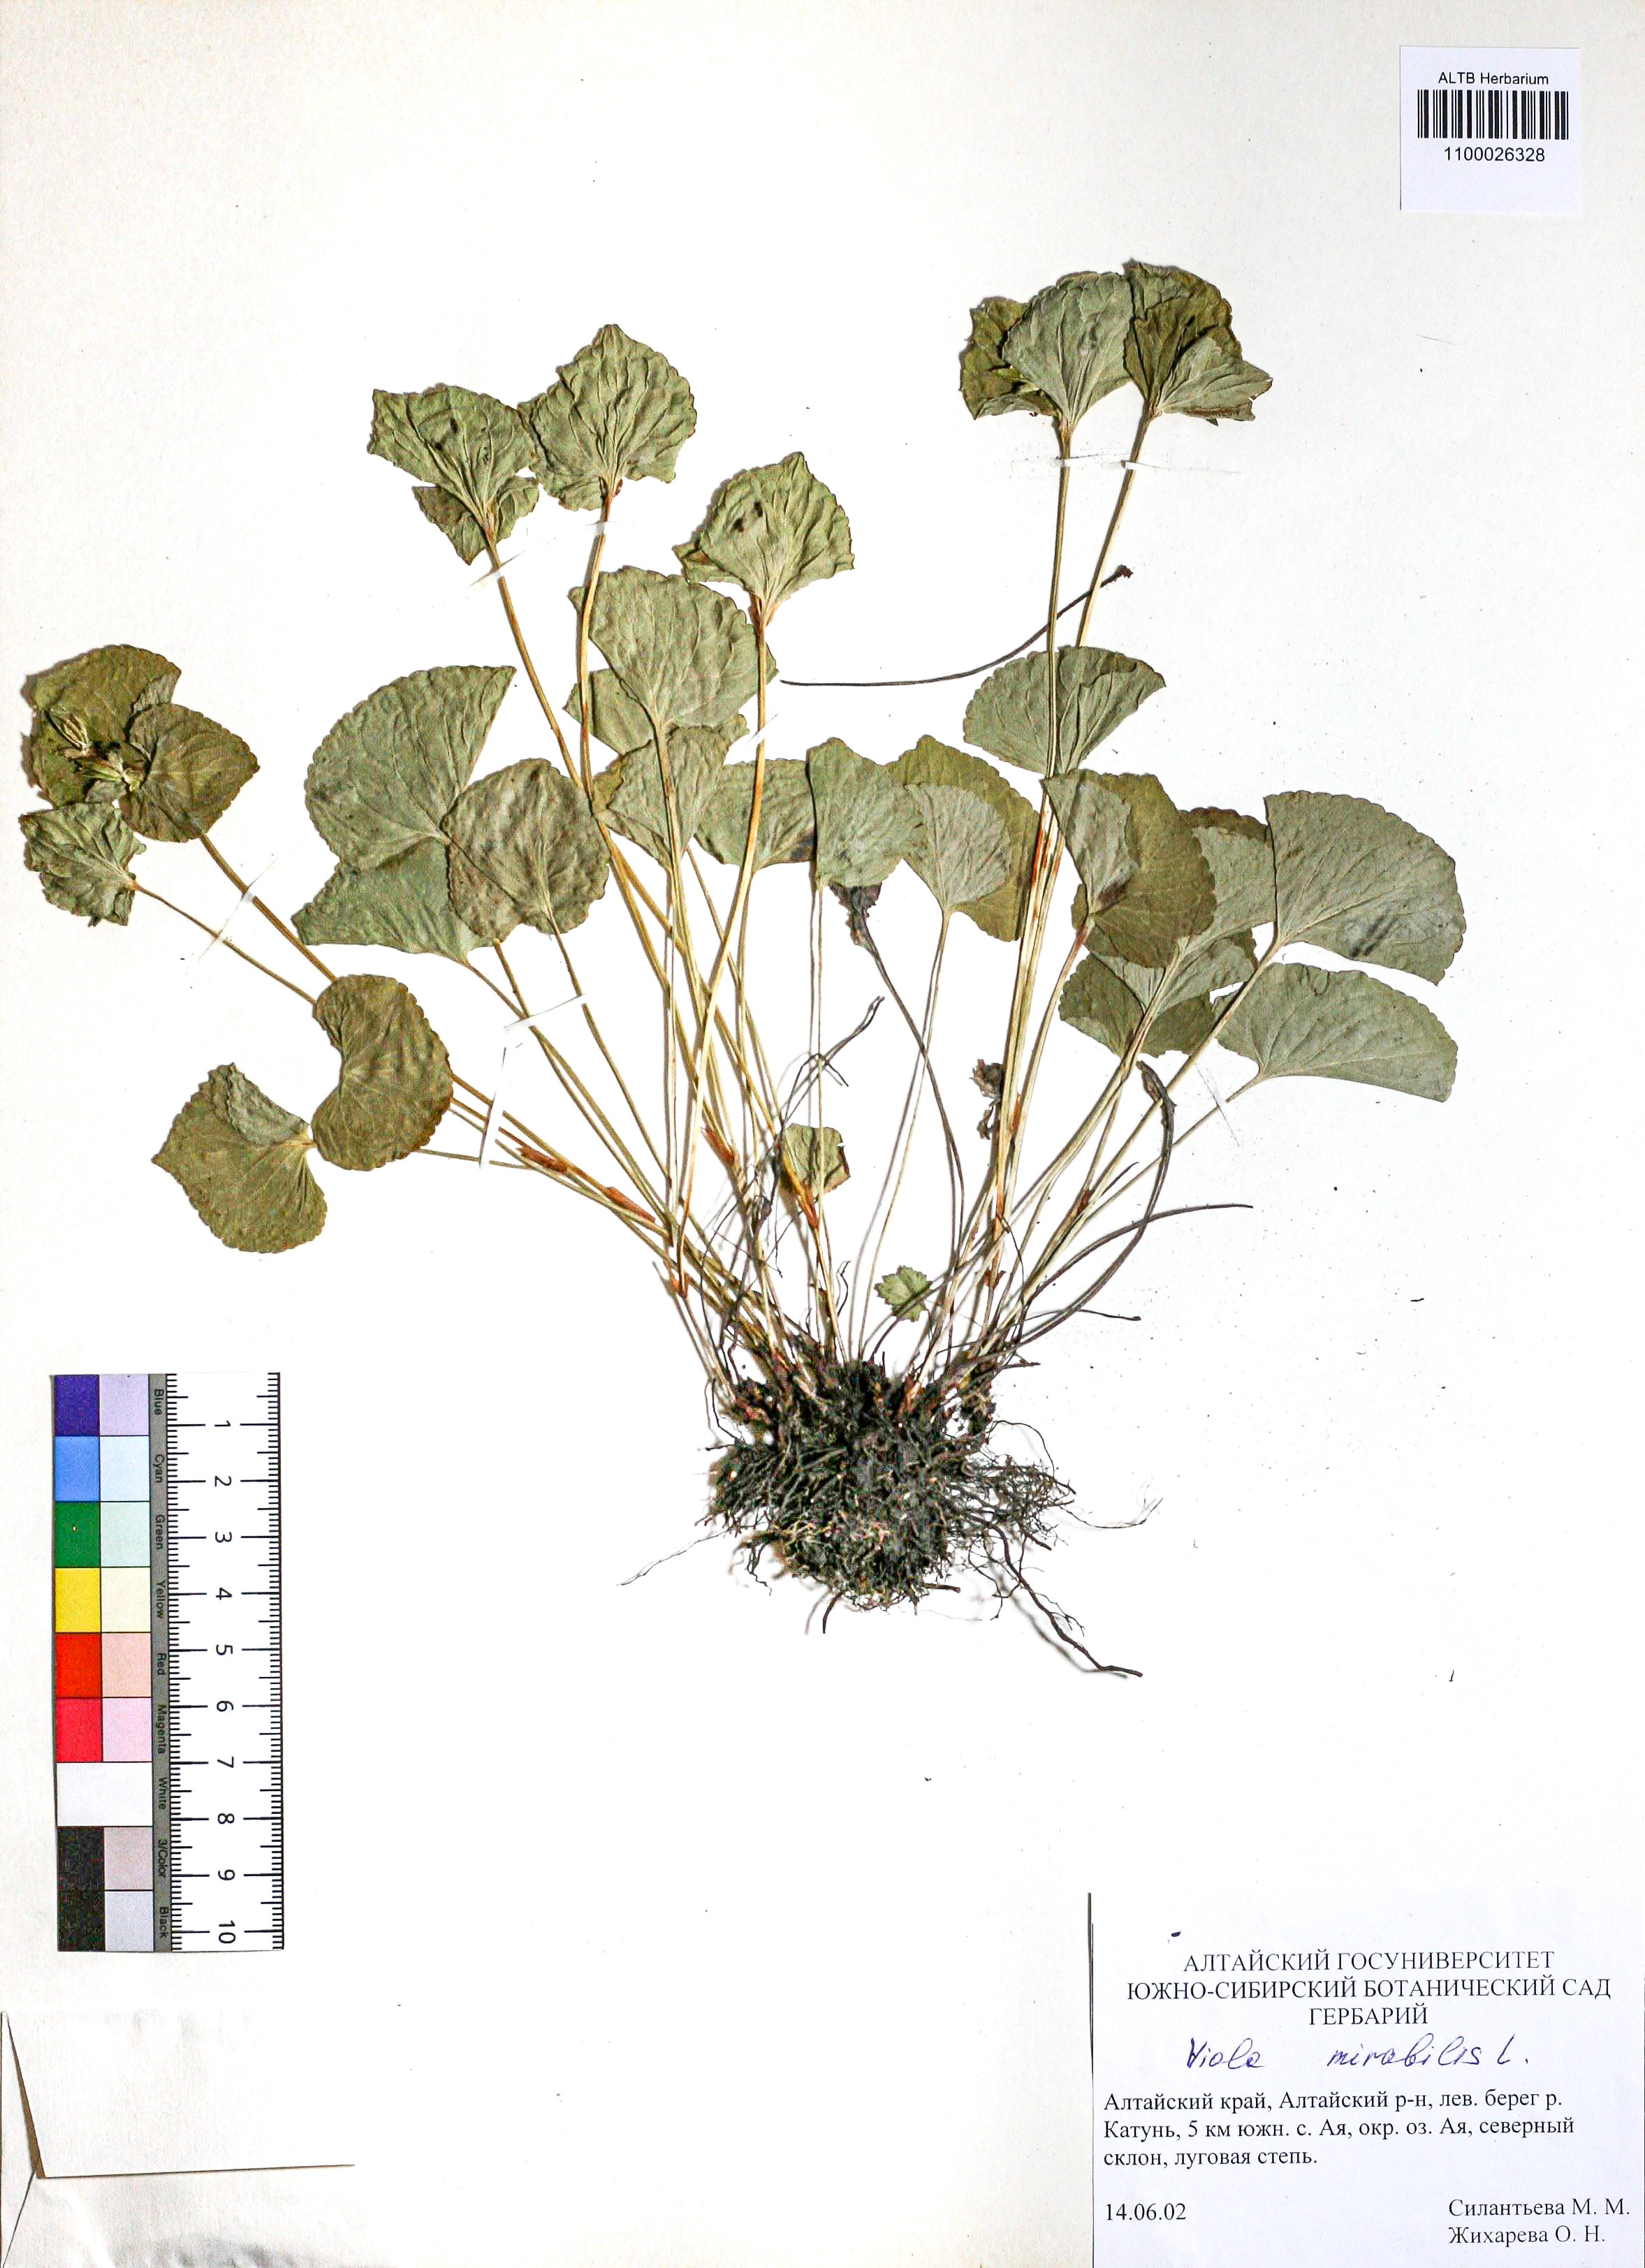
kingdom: Plantae
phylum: Tracheophyta
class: Magnoliopsida
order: Malpighiales
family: Violaceae
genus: Viola
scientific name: Viola mirabilis
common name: Wonder violet
